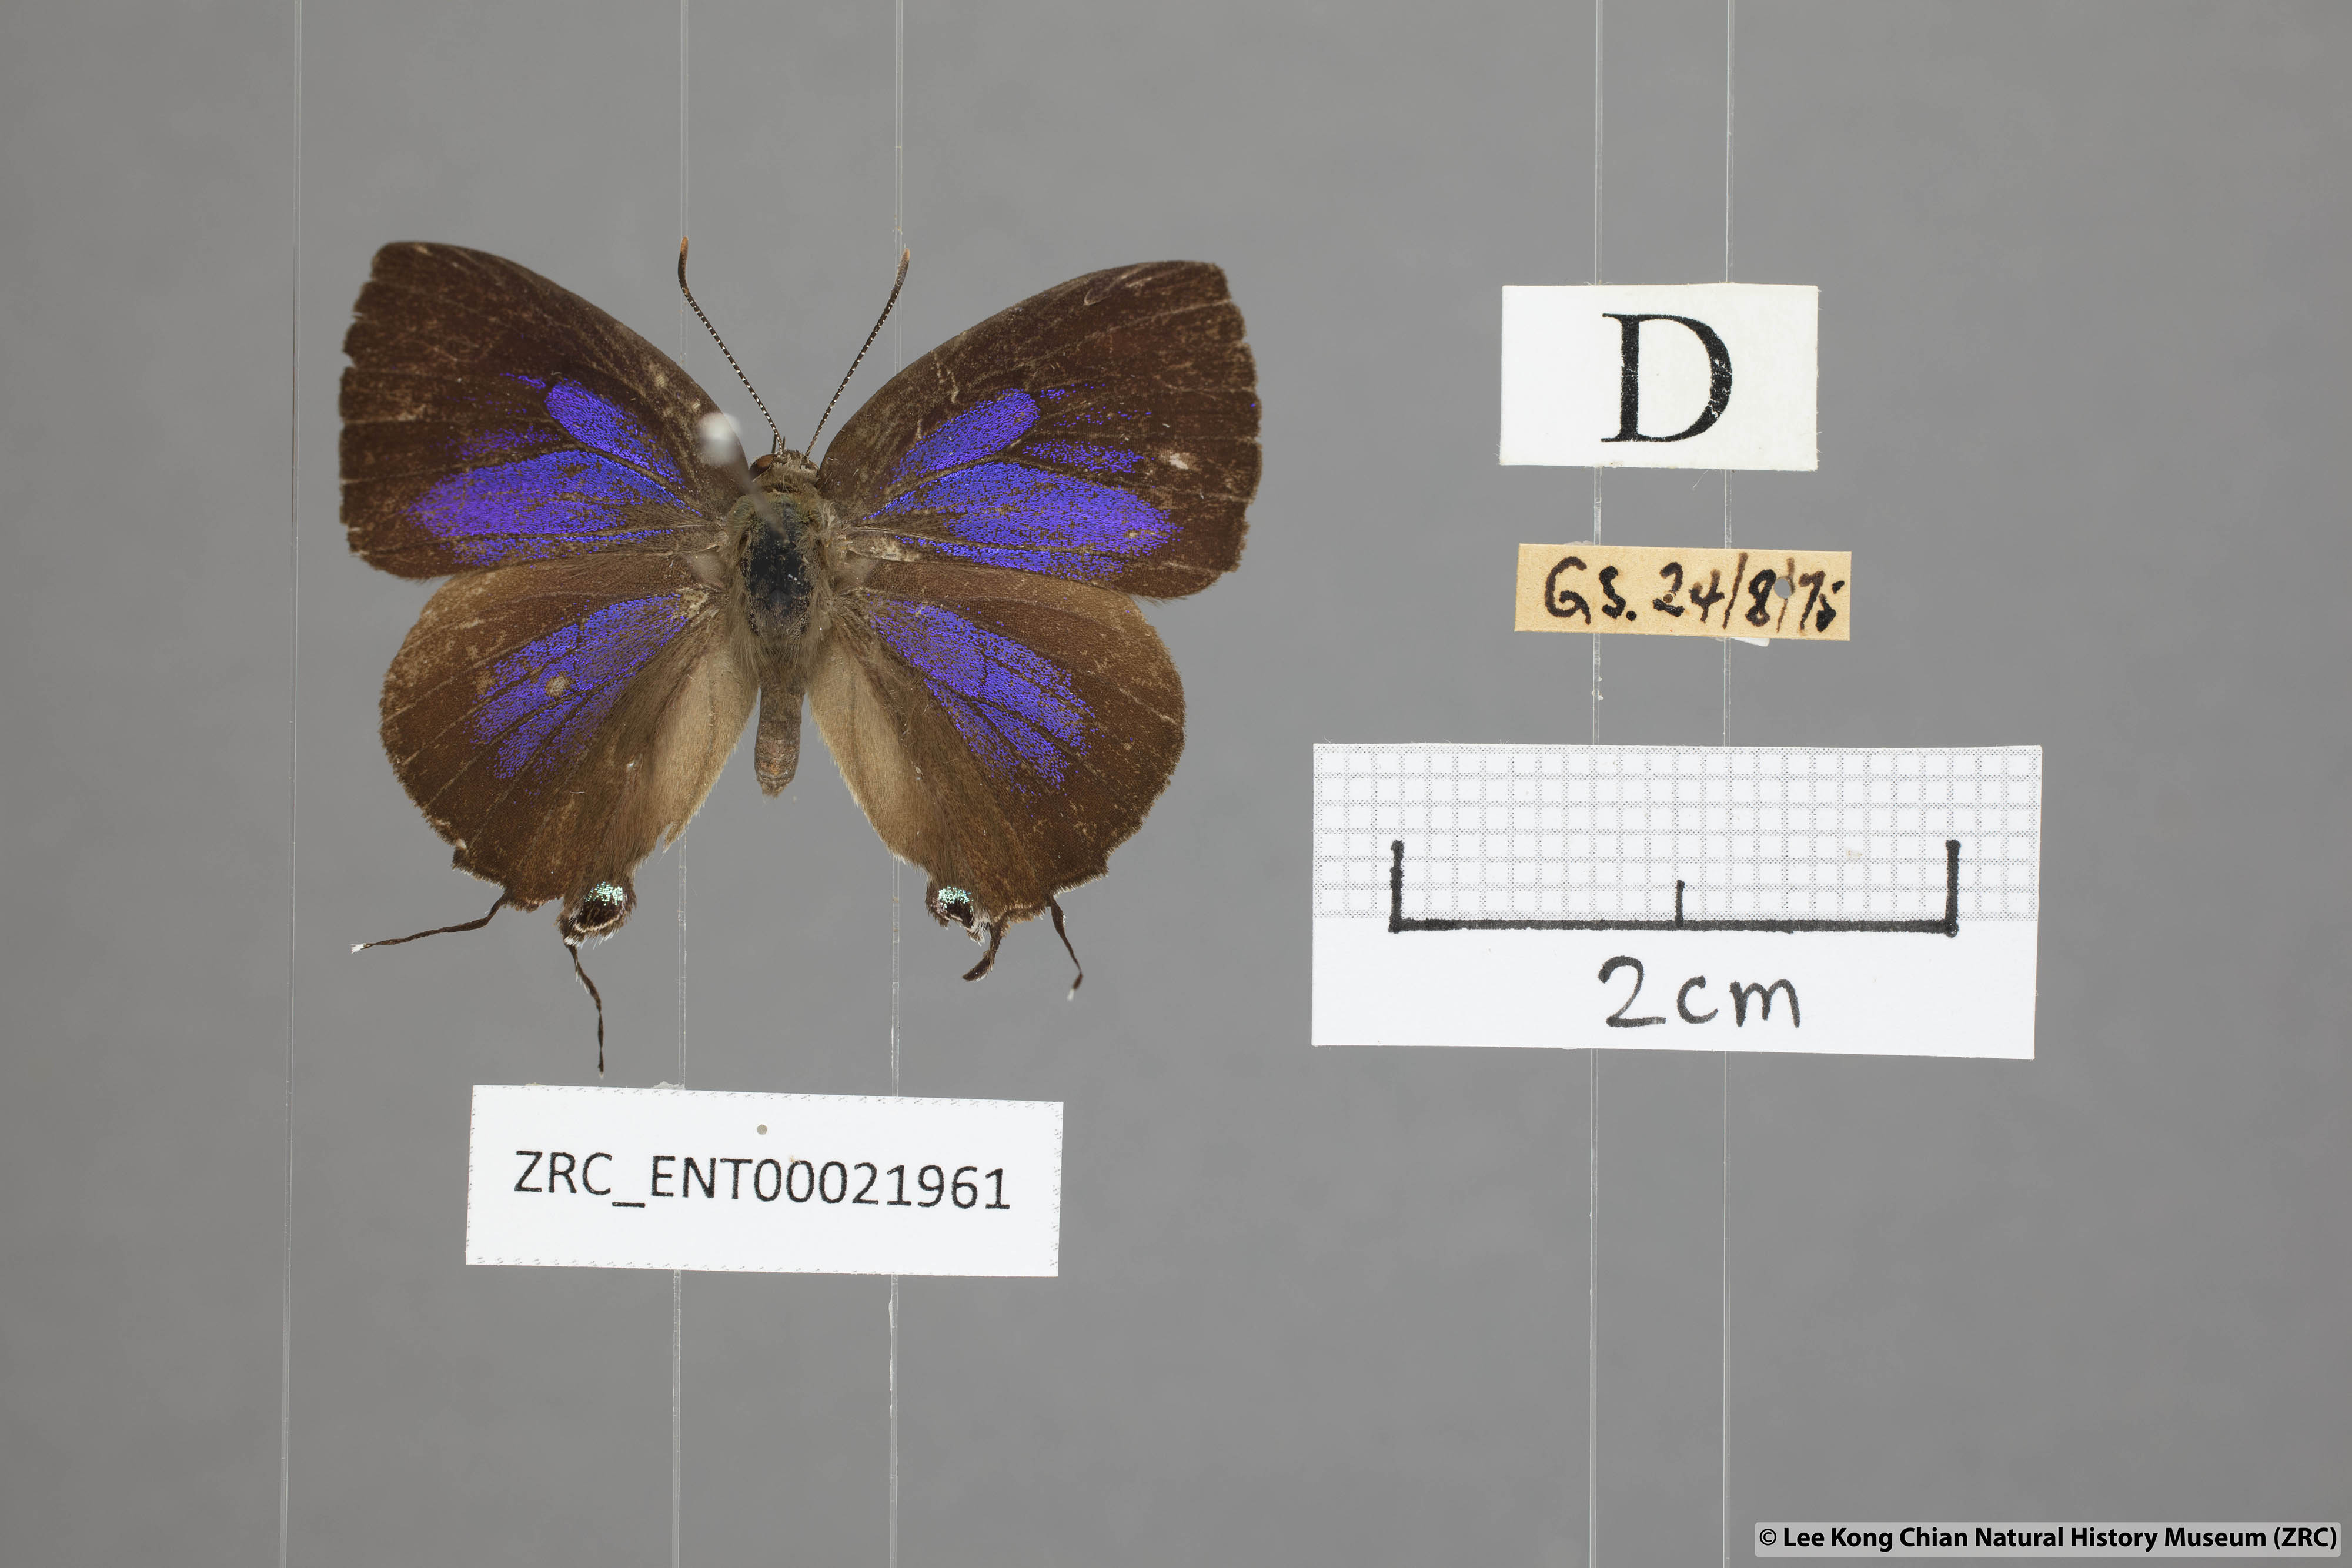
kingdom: Animalia
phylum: Arthropoda
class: Insecta
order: Lepidoptera
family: Lycaenidae
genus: Remelana
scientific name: Remelana jangala
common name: Chocolate royal
